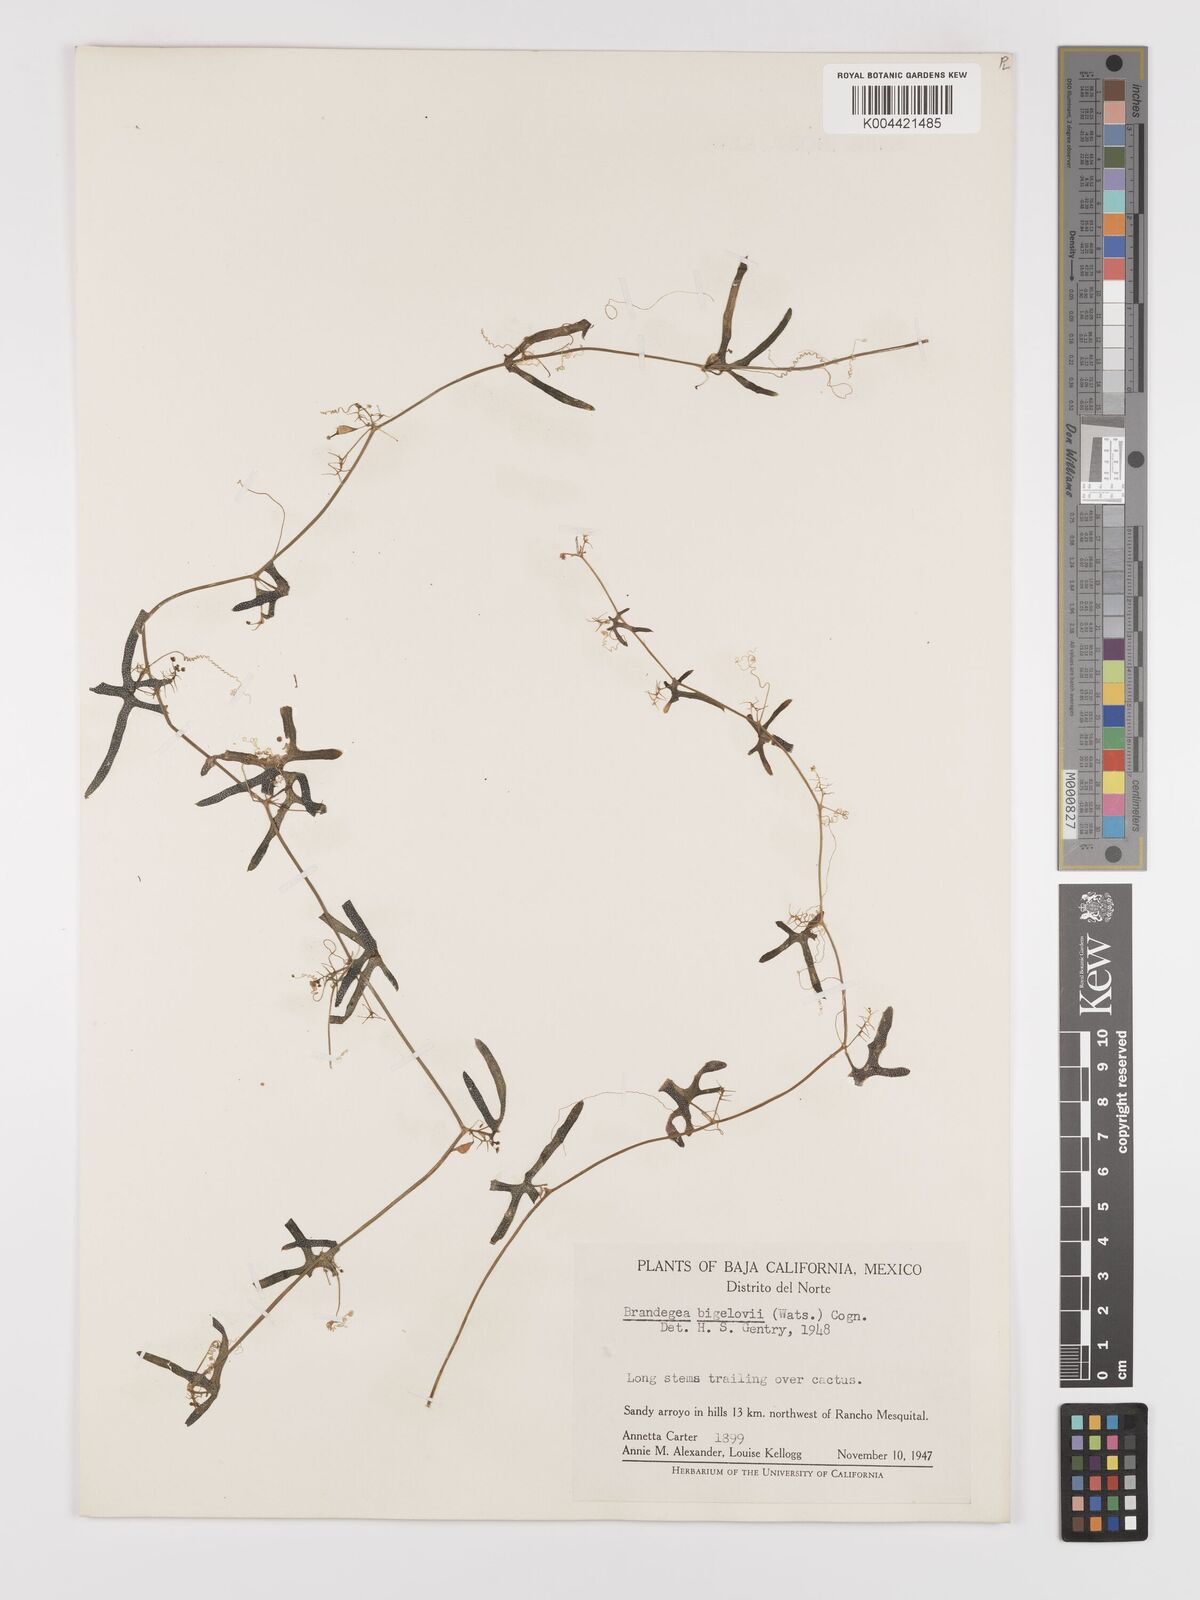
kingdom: Plantae
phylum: Tracheophyta
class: Magnoliopsida
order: Cucurbitales
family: Cucurbitaceae
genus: Echinopepon
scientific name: Echinopepon bigelovii
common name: Desert starvine
